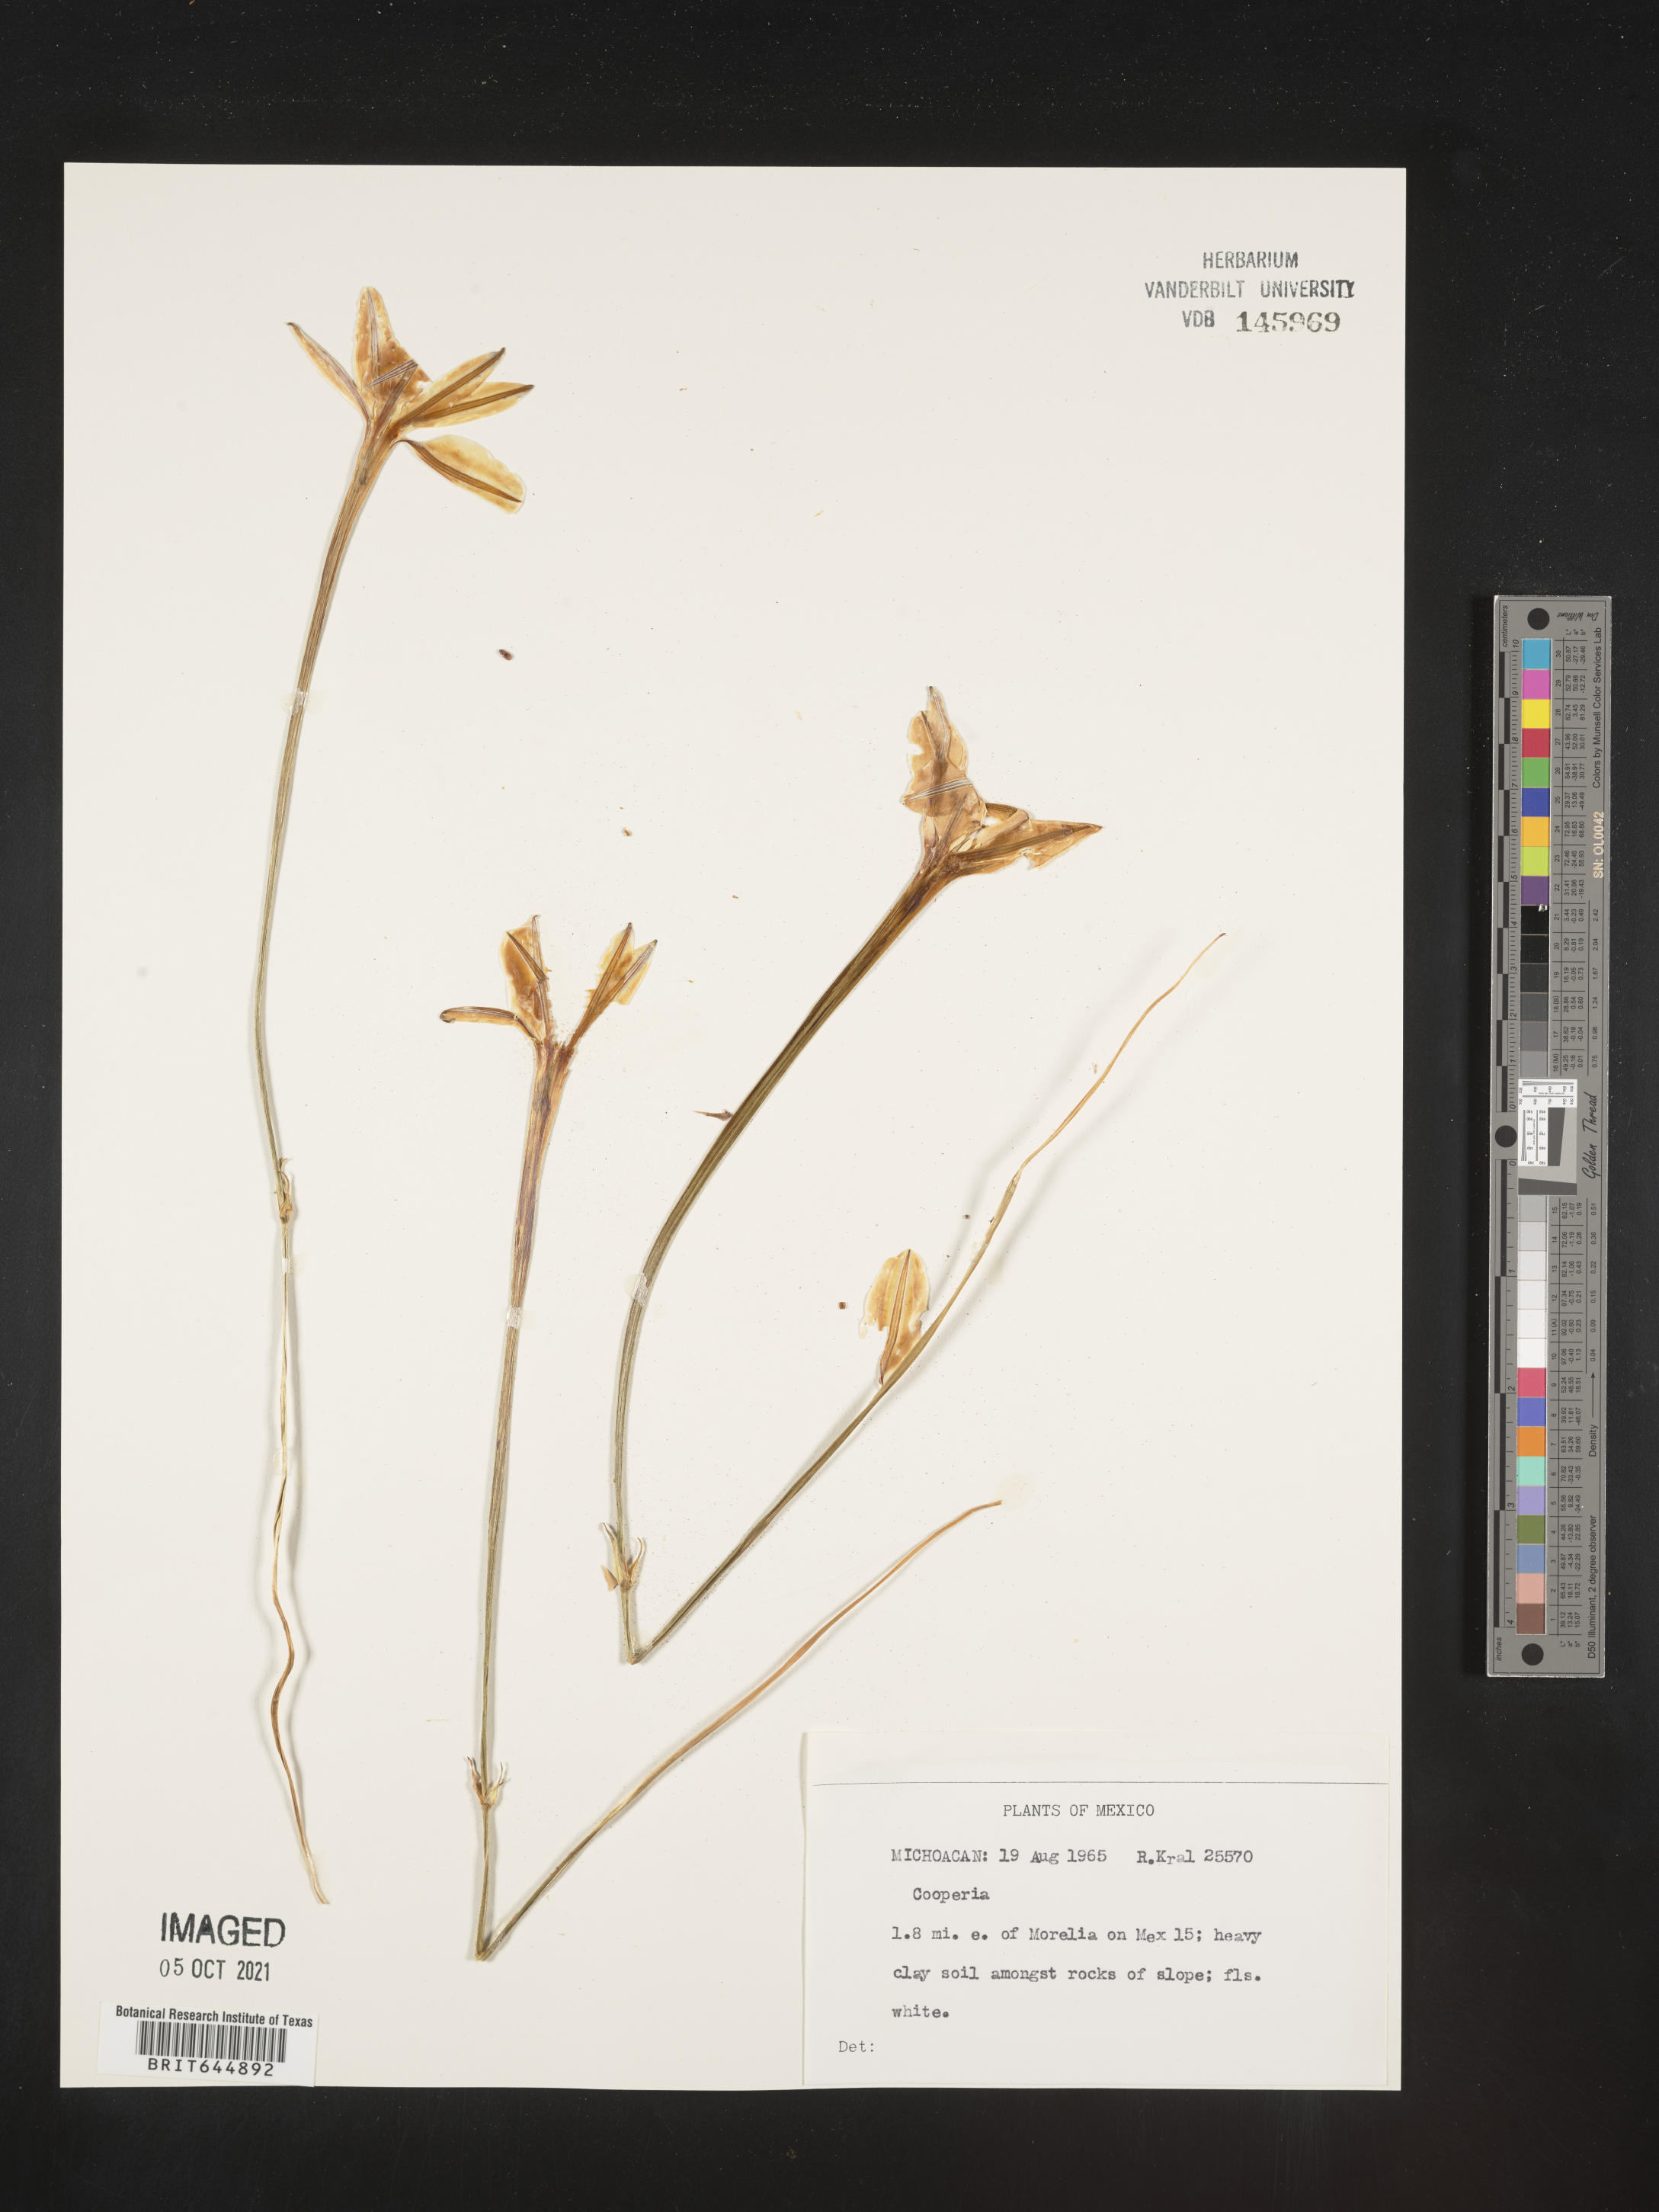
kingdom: Plantae
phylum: Tracheophyta
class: Liliopsida
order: Asparagales
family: Amaryllidaceae
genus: Zephyranthes
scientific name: Zephyranthes Cooperia spec
